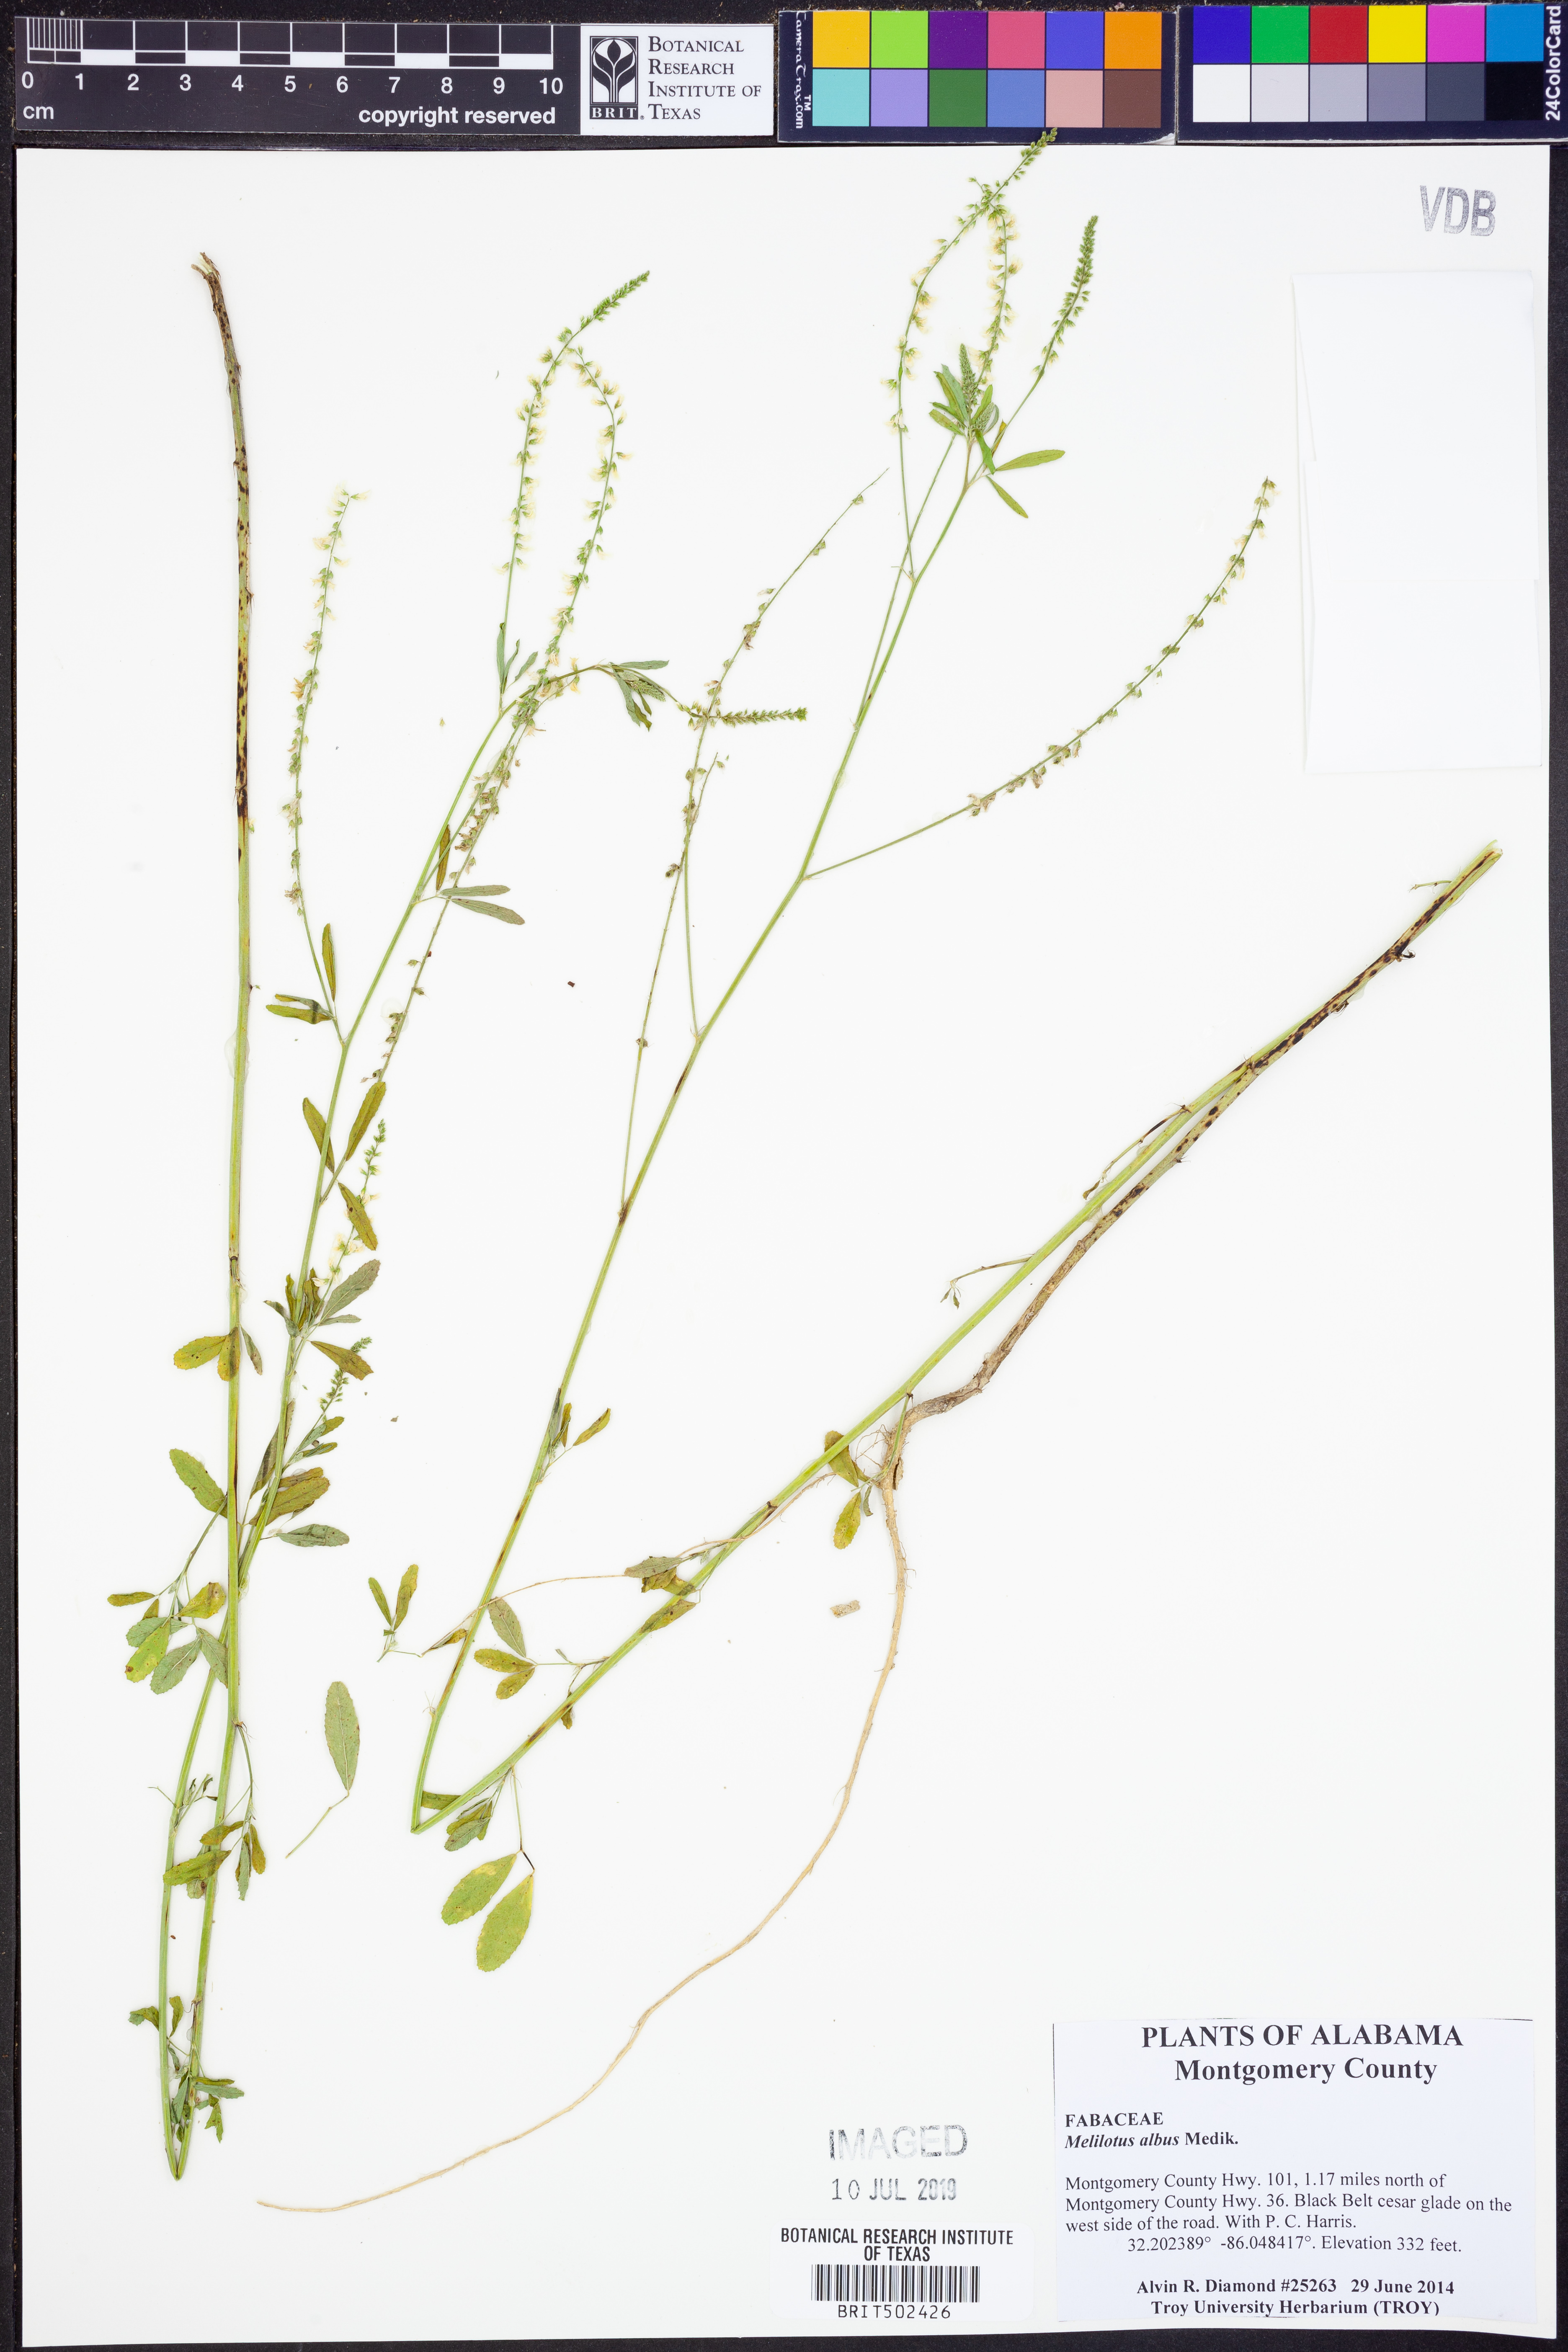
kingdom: Plantae
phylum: Tracheophyta
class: Magnoliopsida
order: Fabales
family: Fabaceae
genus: Melilotus
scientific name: Melilotus albus
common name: White melilot
